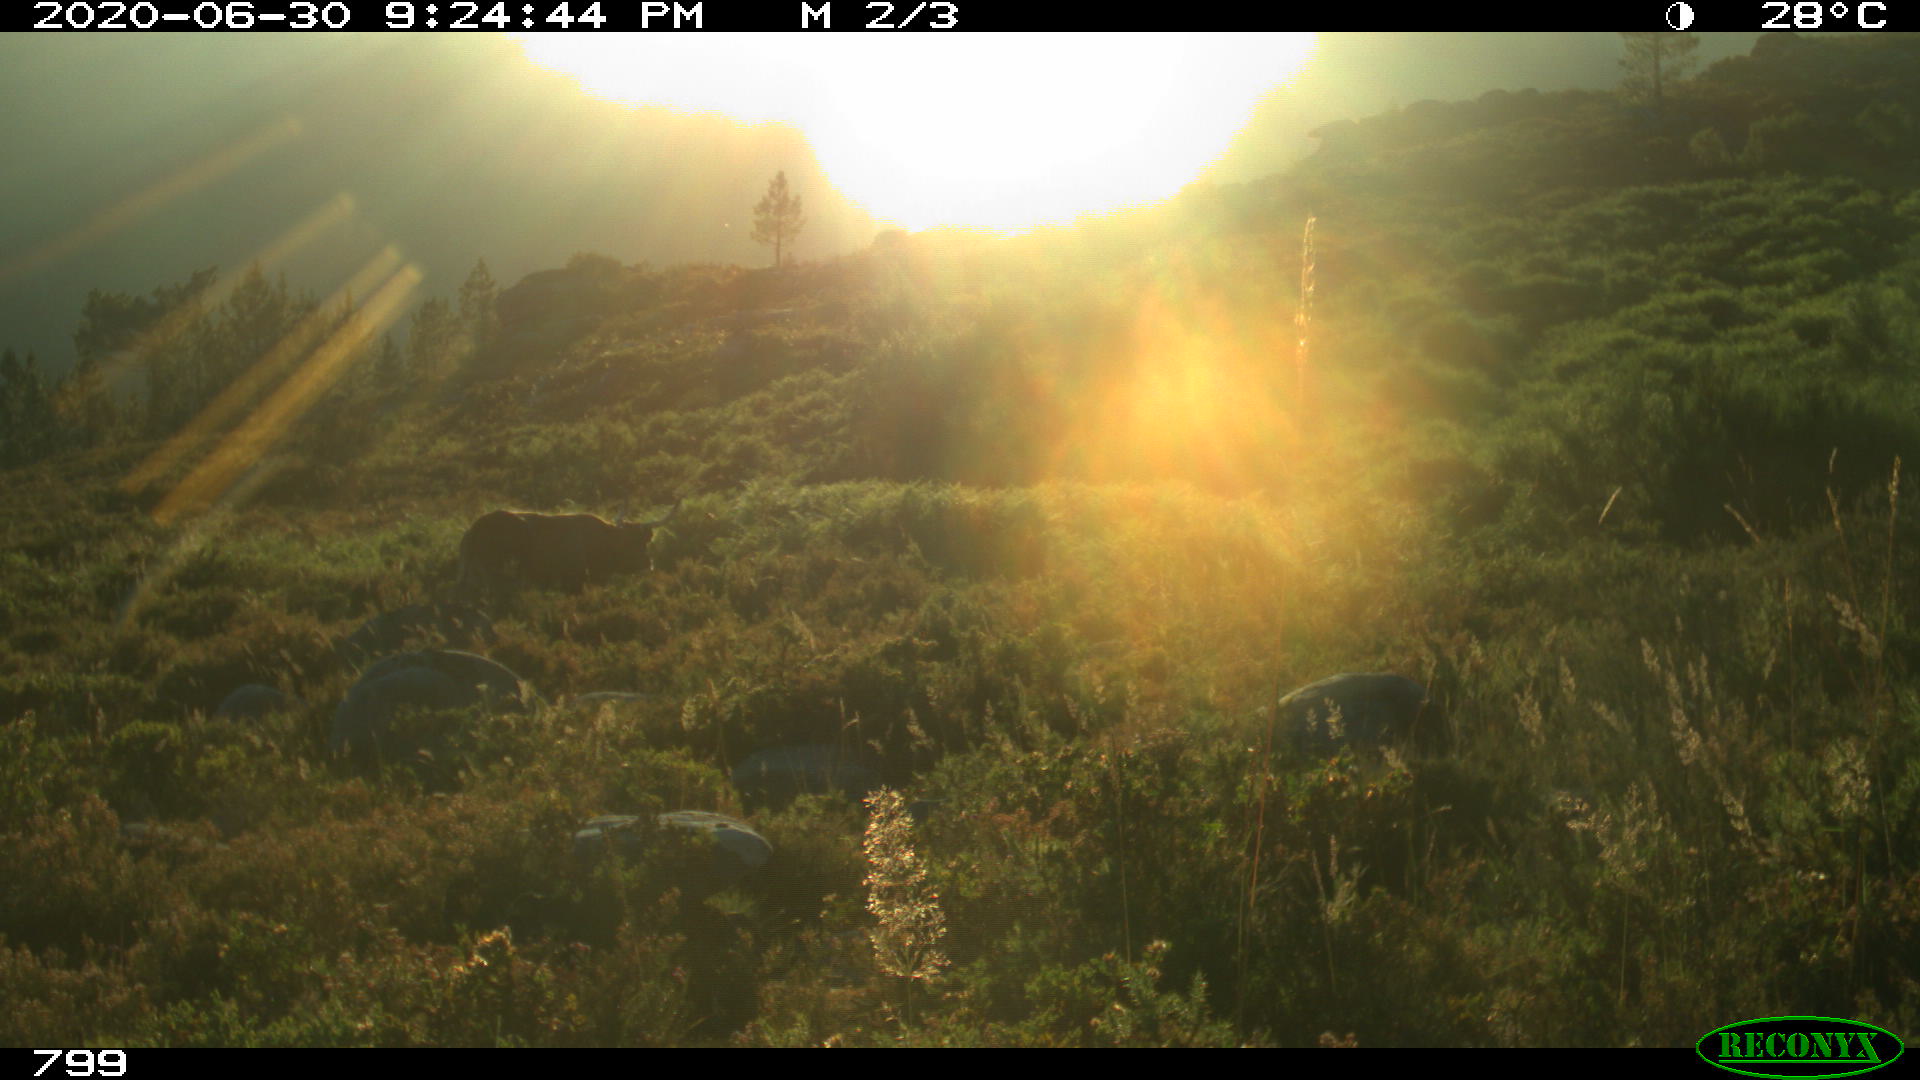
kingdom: Animalia
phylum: Chordata
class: Mammalia
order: Artiodactyla
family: Bovidae
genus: Bos
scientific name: Bos taurus
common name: Domesticated cattle
